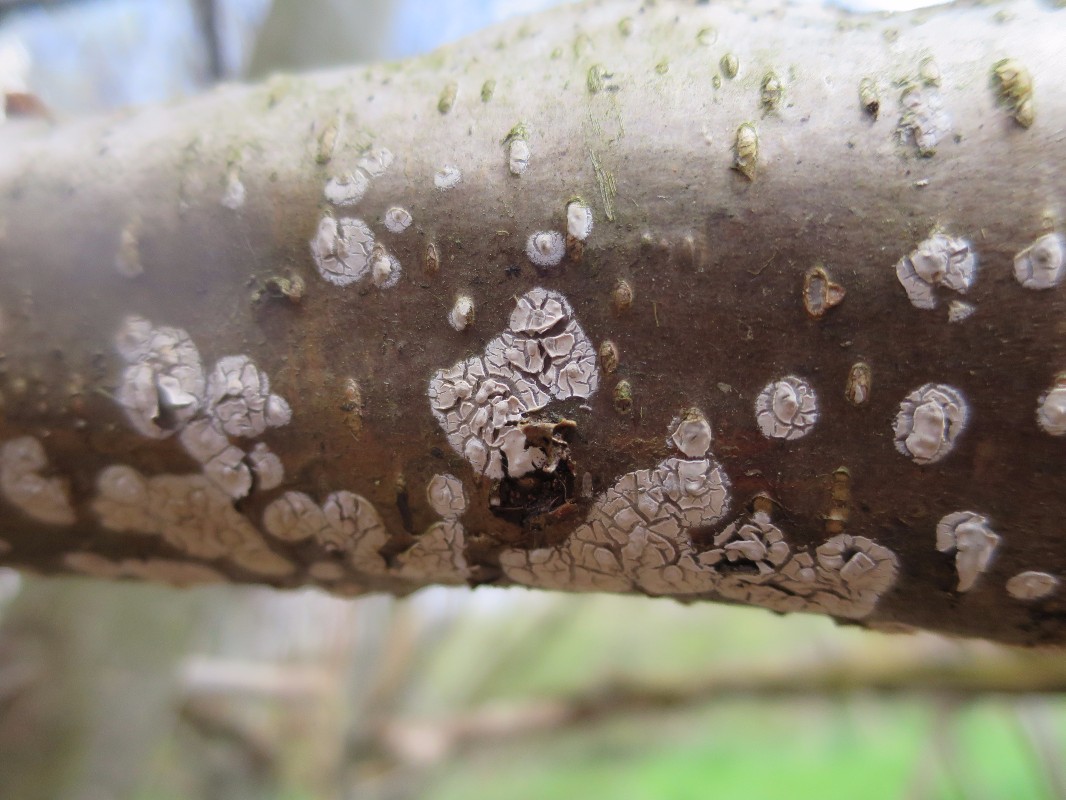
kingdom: Fungi
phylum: Basidiomycota
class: Agaricomycetes
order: Agaricales
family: Physalacriaceae
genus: Cylindrobasidium
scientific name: Cylindrobasidium evolvens
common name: sprækkehinde
